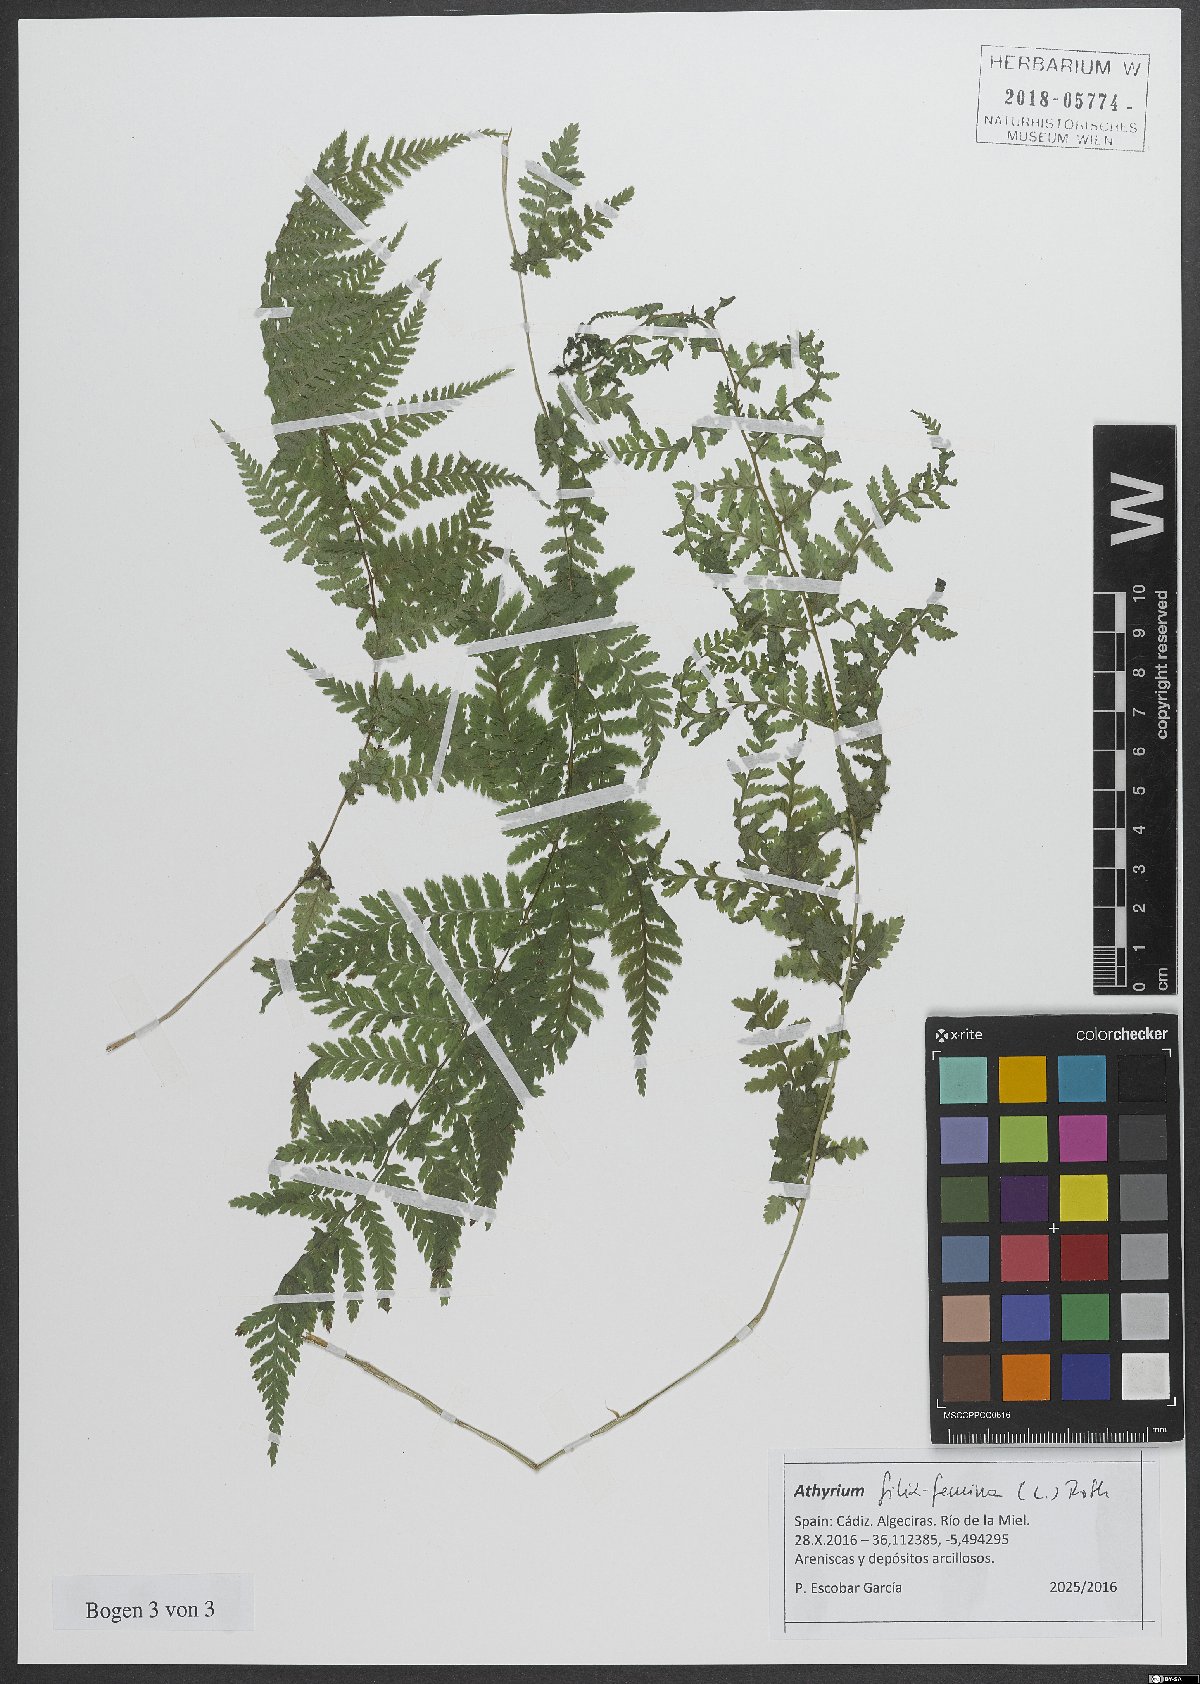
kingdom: Plantae
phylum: Tracheophyta
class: Polypodiopsida
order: Polypodiales
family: Athyriaceae
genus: Athyrium
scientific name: Athyrium filix-femina
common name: Lady fern
